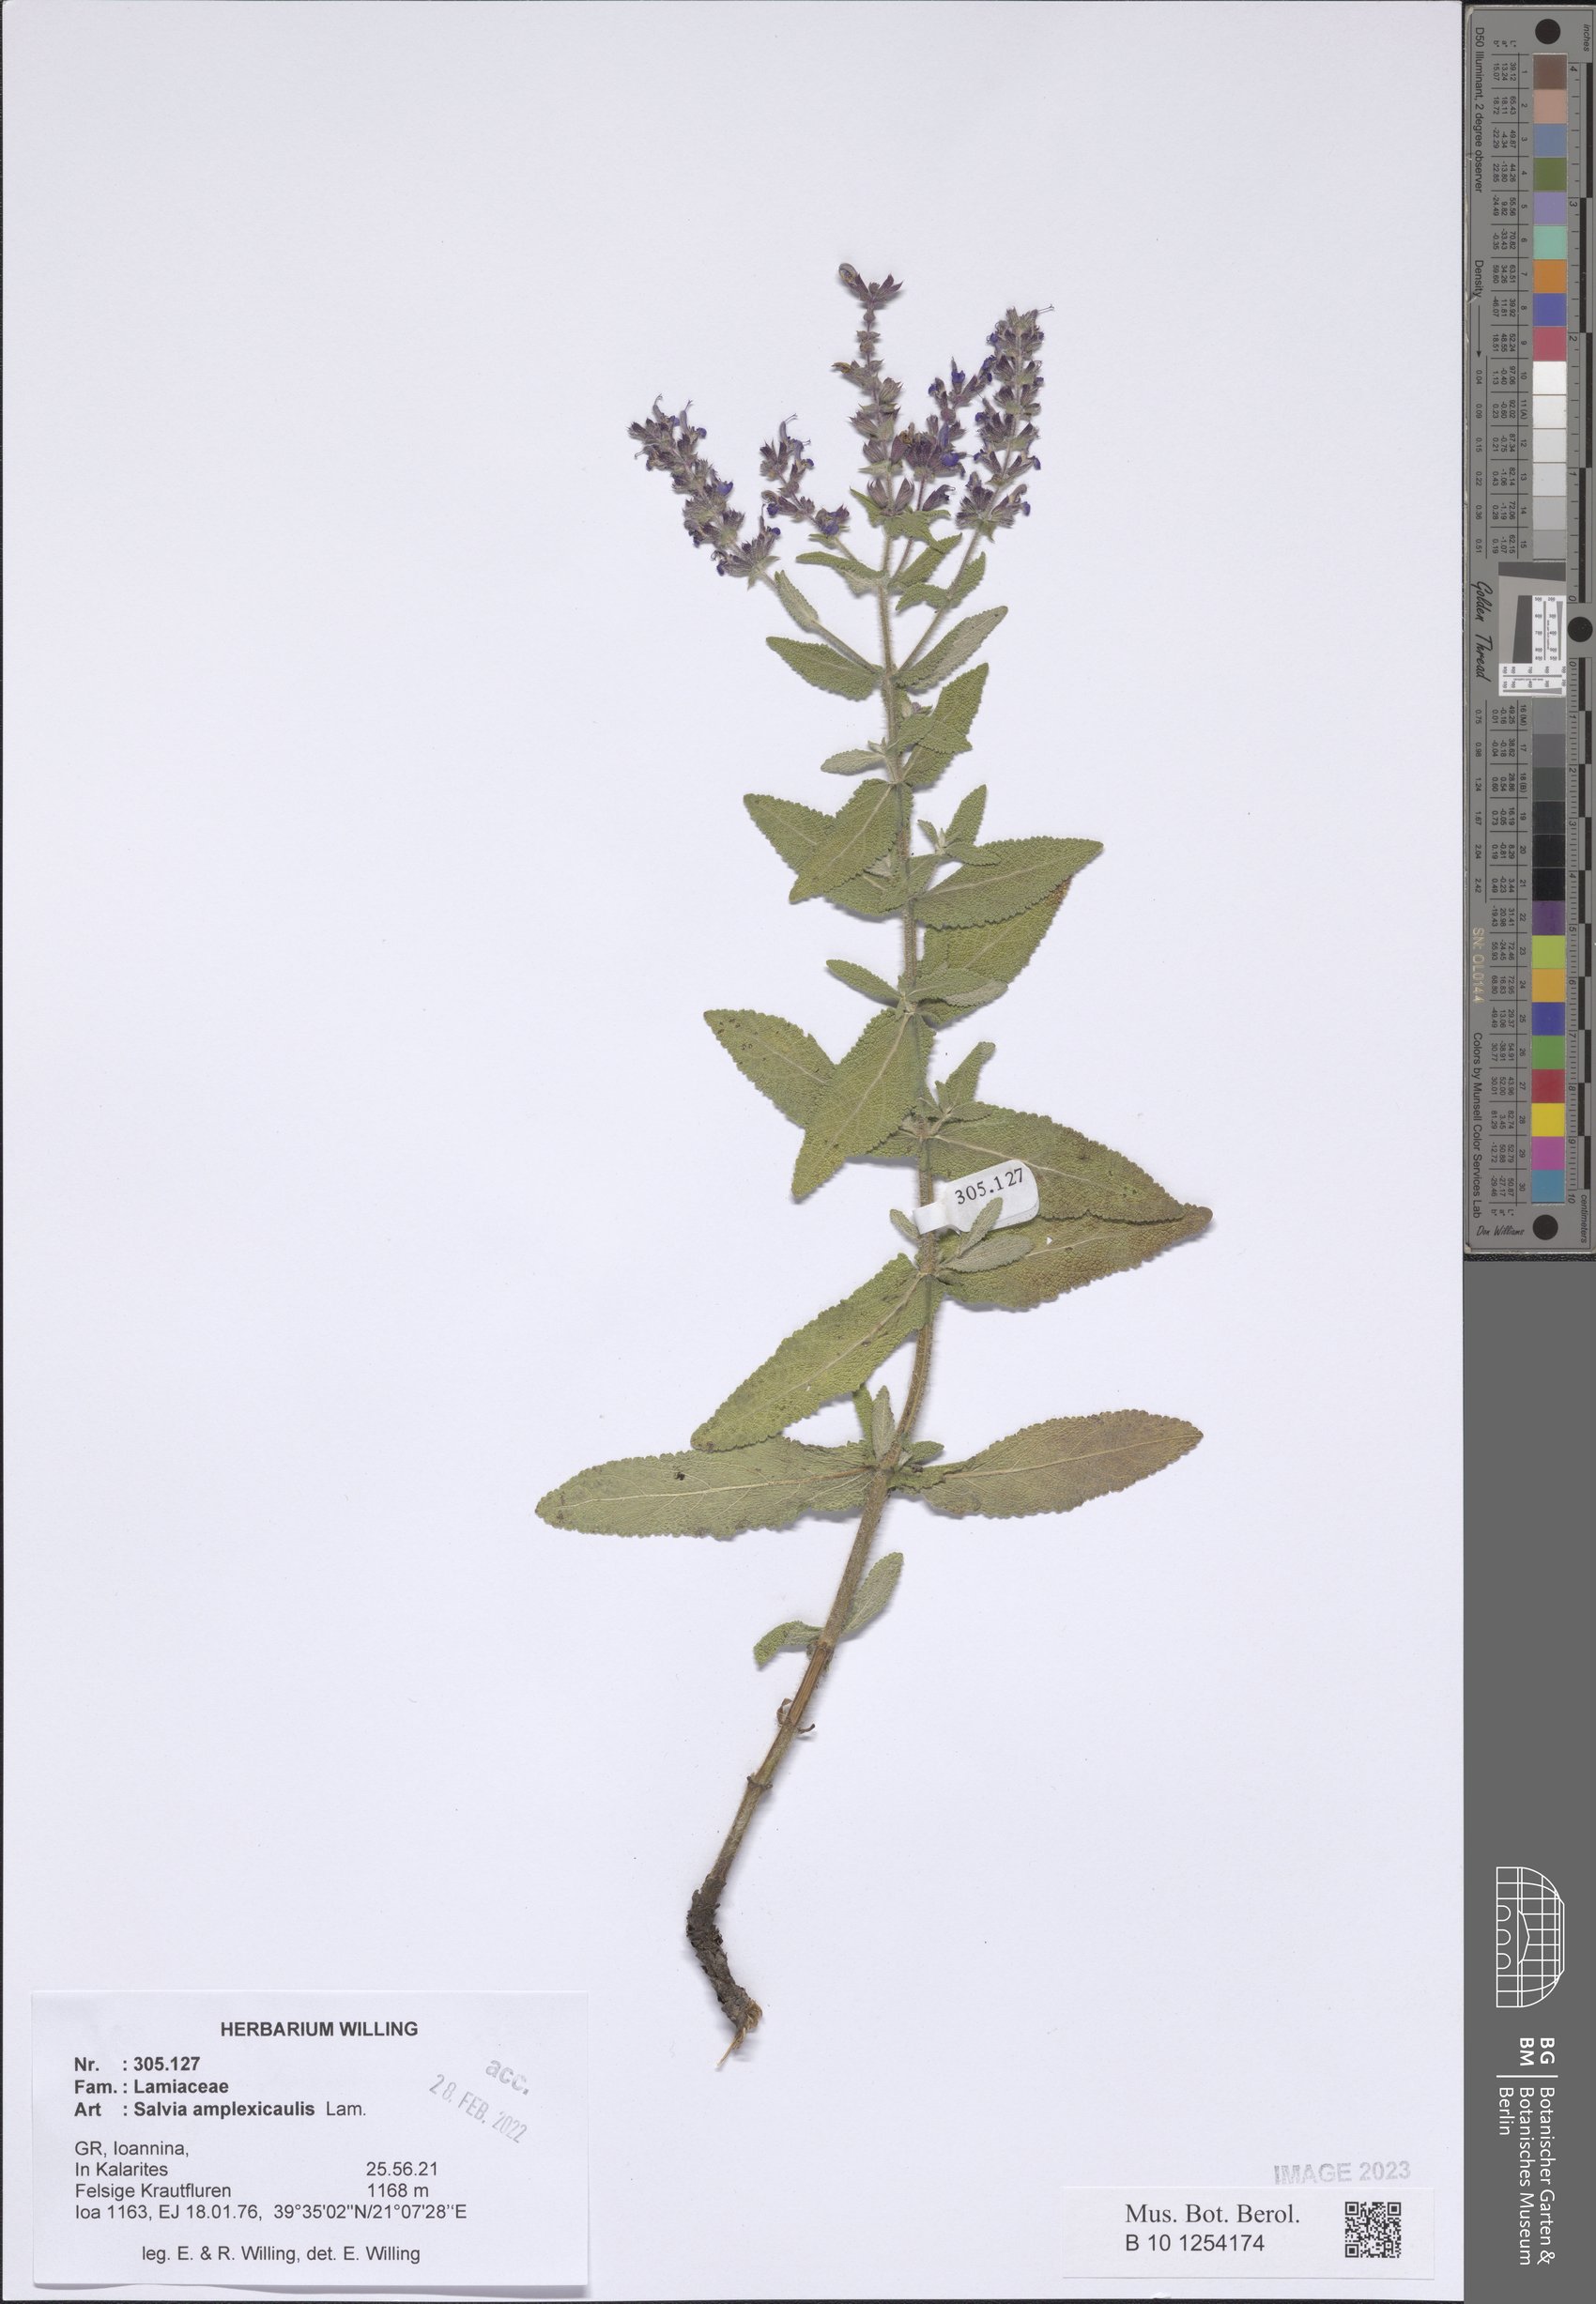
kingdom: Plantae
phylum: Tracheophyta
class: Magnoliopsida
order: Lamiales
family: Lamiaceae
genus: Salvia
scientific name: Salvia amplexicaulis
